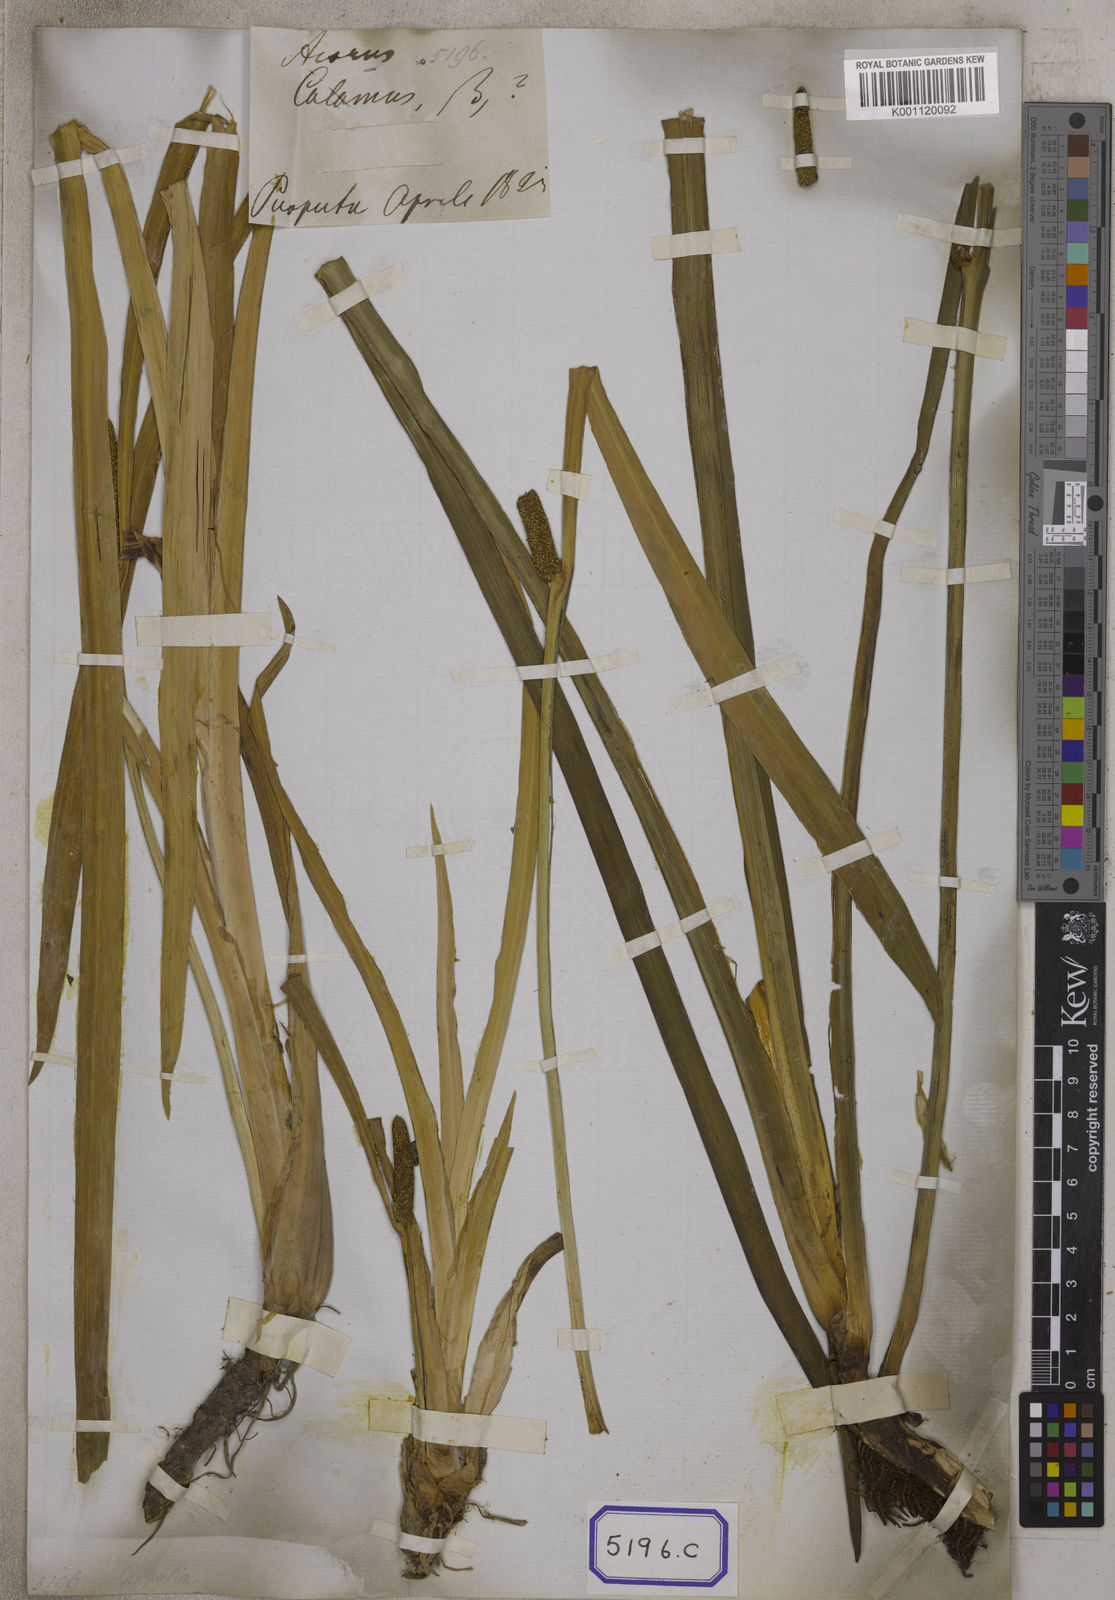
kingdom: Plantae
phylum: Tracheophyta
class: Liliopsida
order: Acorales
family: Acoraceae
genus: Acorus
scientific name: Acorus calamus
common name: Sweet-flag
